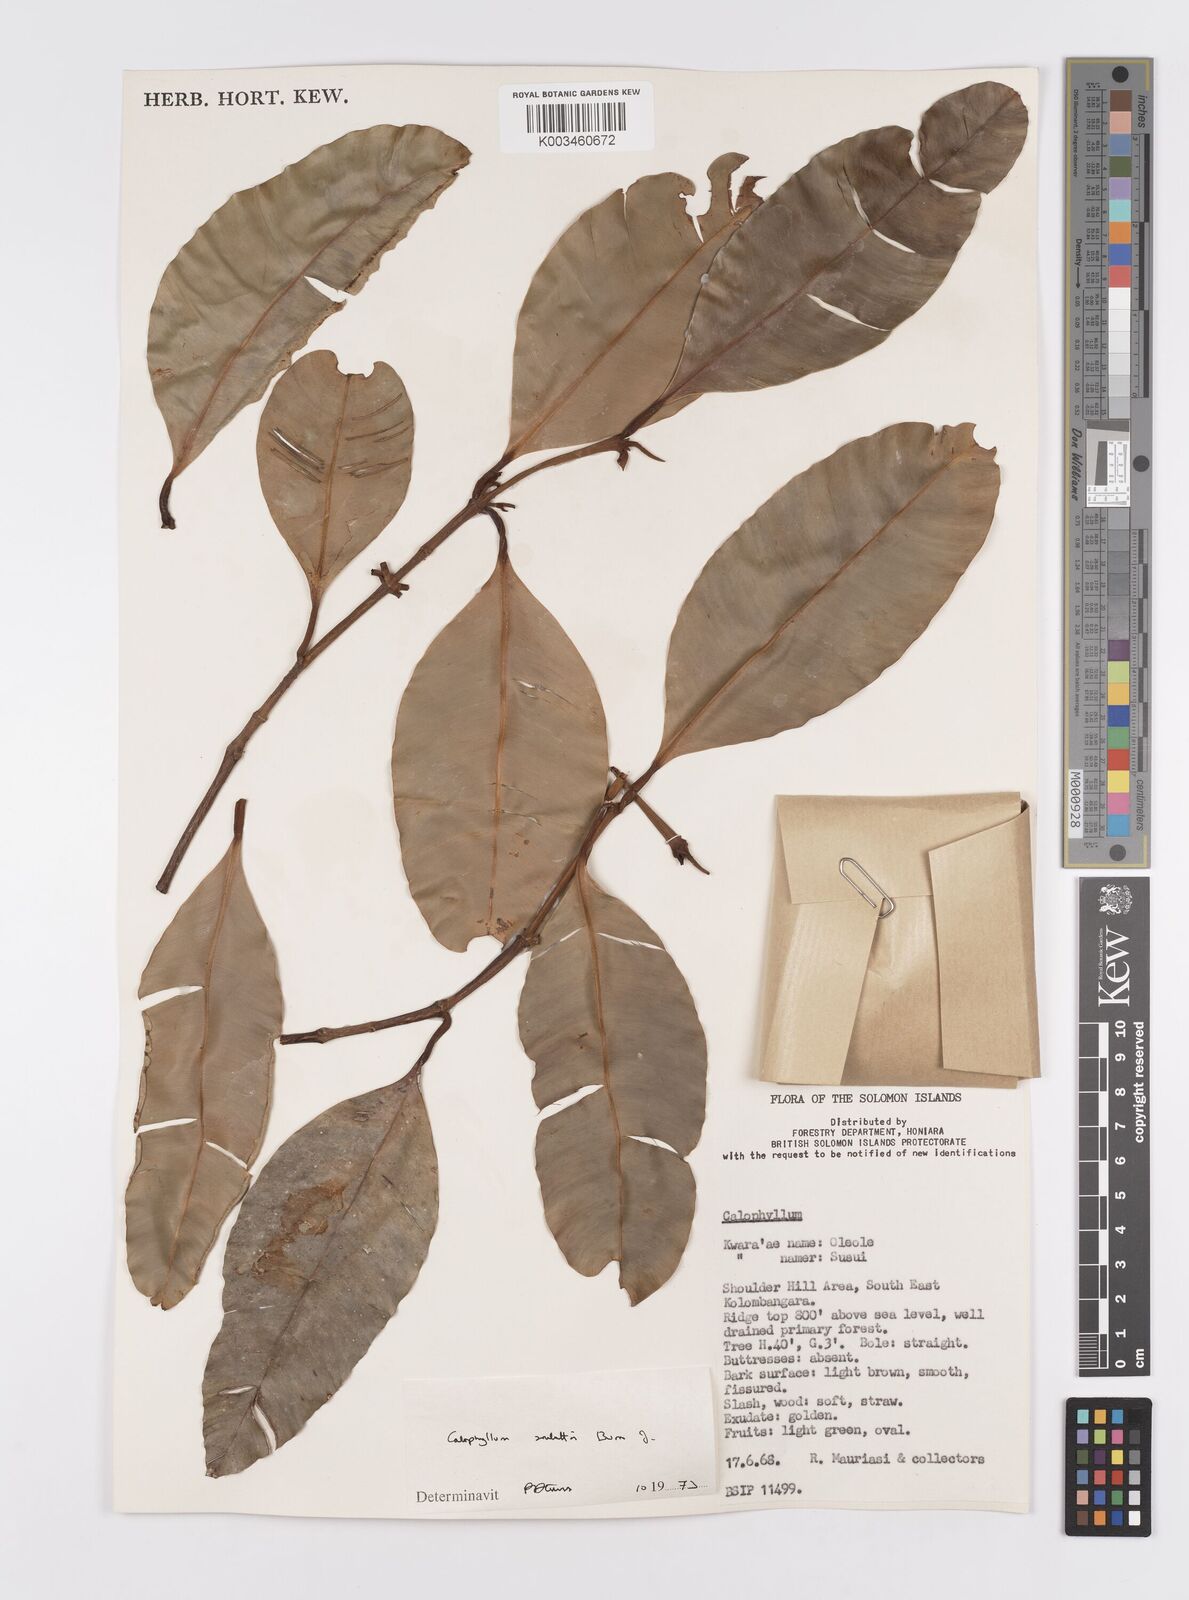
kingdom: Plantae
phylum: Tracheophyta
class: Magnoliopsida
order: Malpighiales
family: Calophyllaceae
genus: Calophyllum
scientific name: Calophyllum soulattri
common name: Bitangoor boonot
